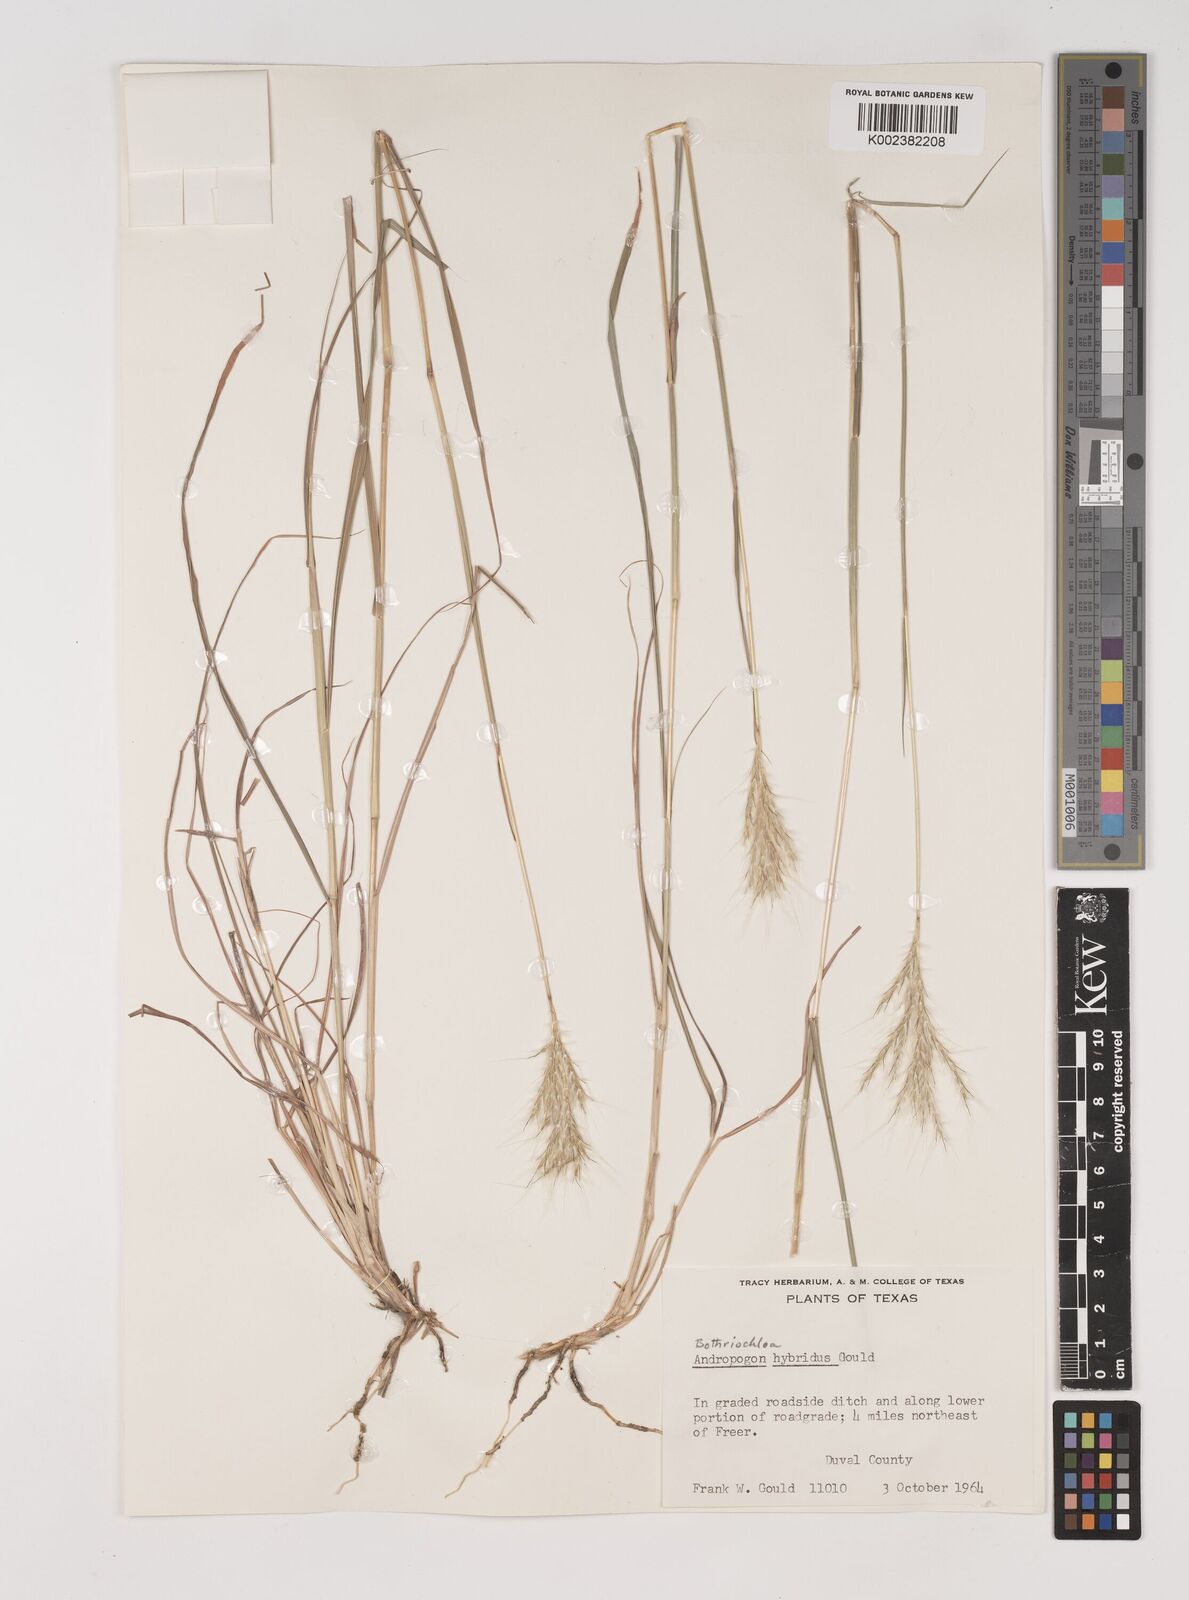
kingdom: Plantae
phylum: Tracheophyta
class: Liliopsida
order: Poales
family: Poaceae
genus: Bothriochloa
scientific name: Bothriochloa hybrida
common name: Hybrid bluestem
